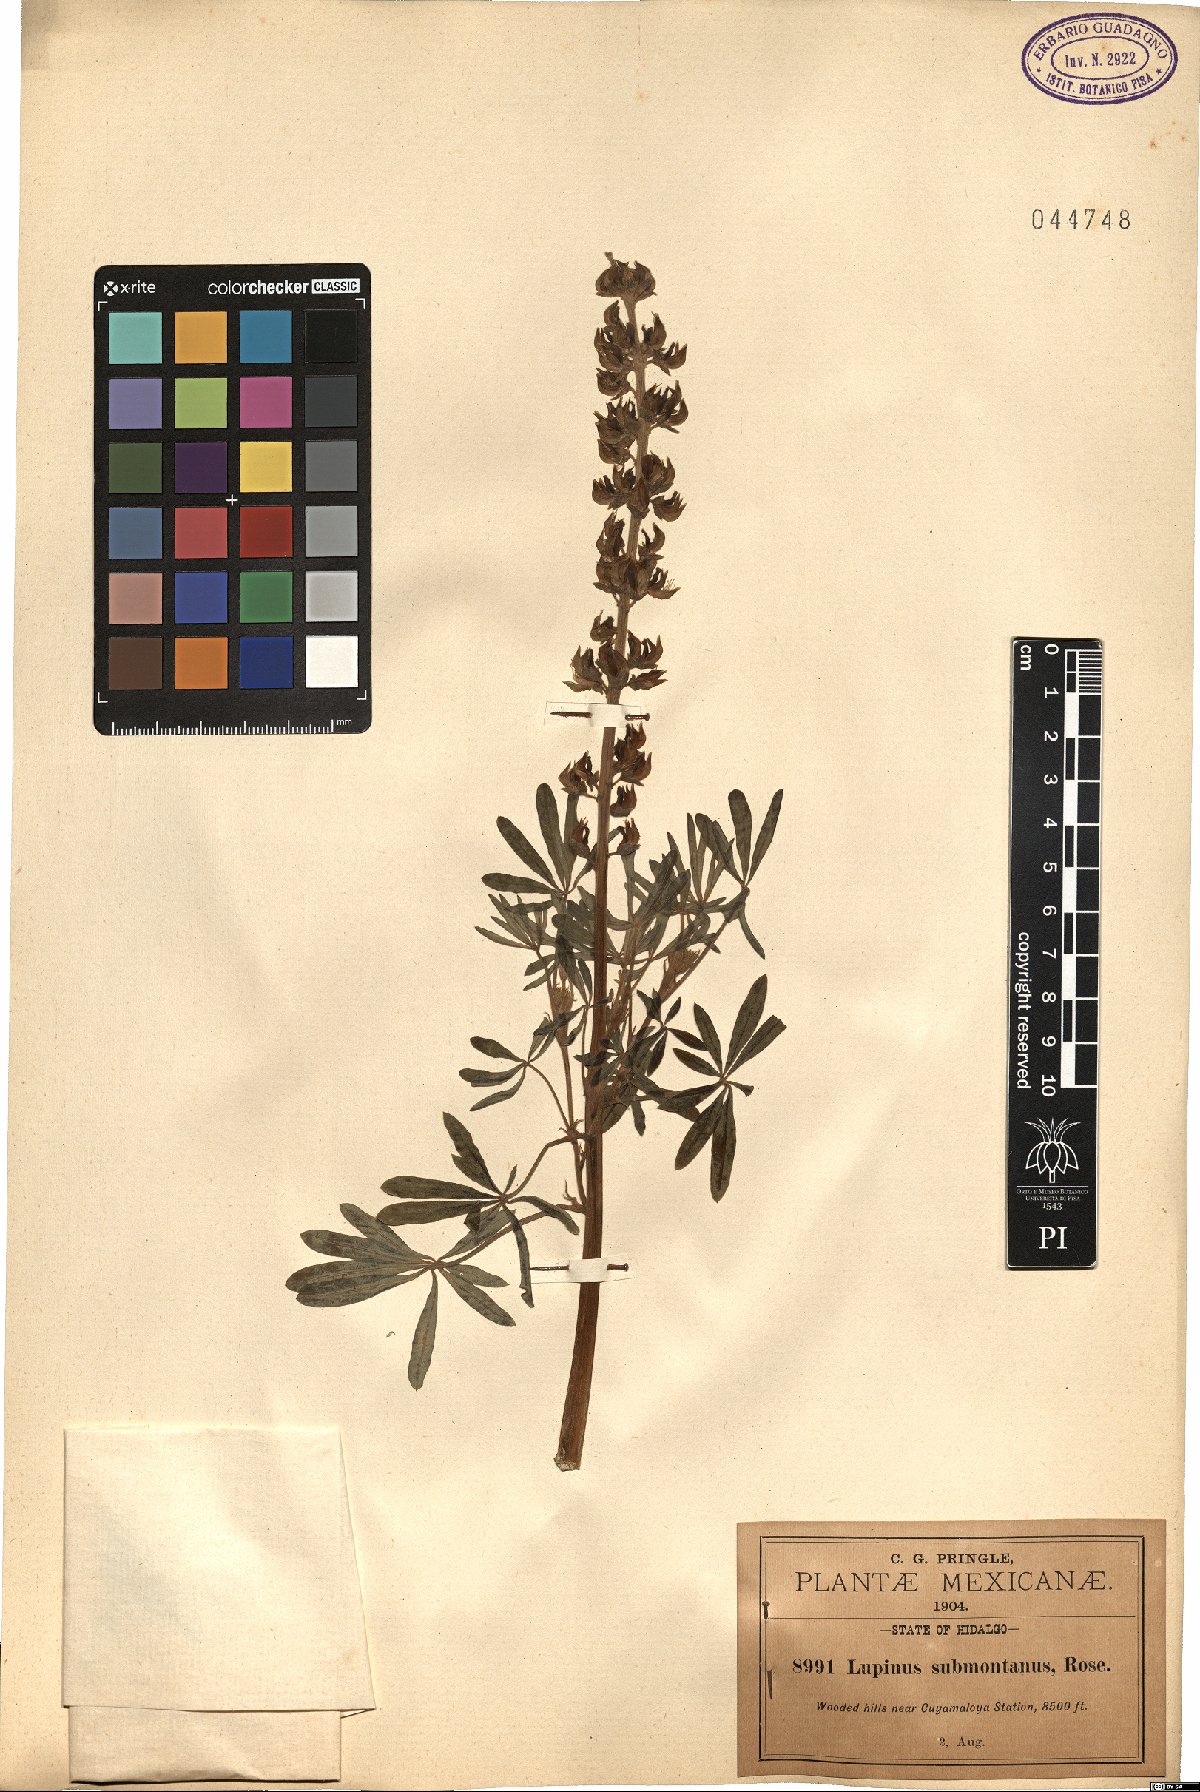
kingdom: Plantae
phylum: Tracheophyta
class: Magnoliopsida
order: Fabales
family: Fabaceae
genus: Lupinus
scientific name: Lupinus glabratus
